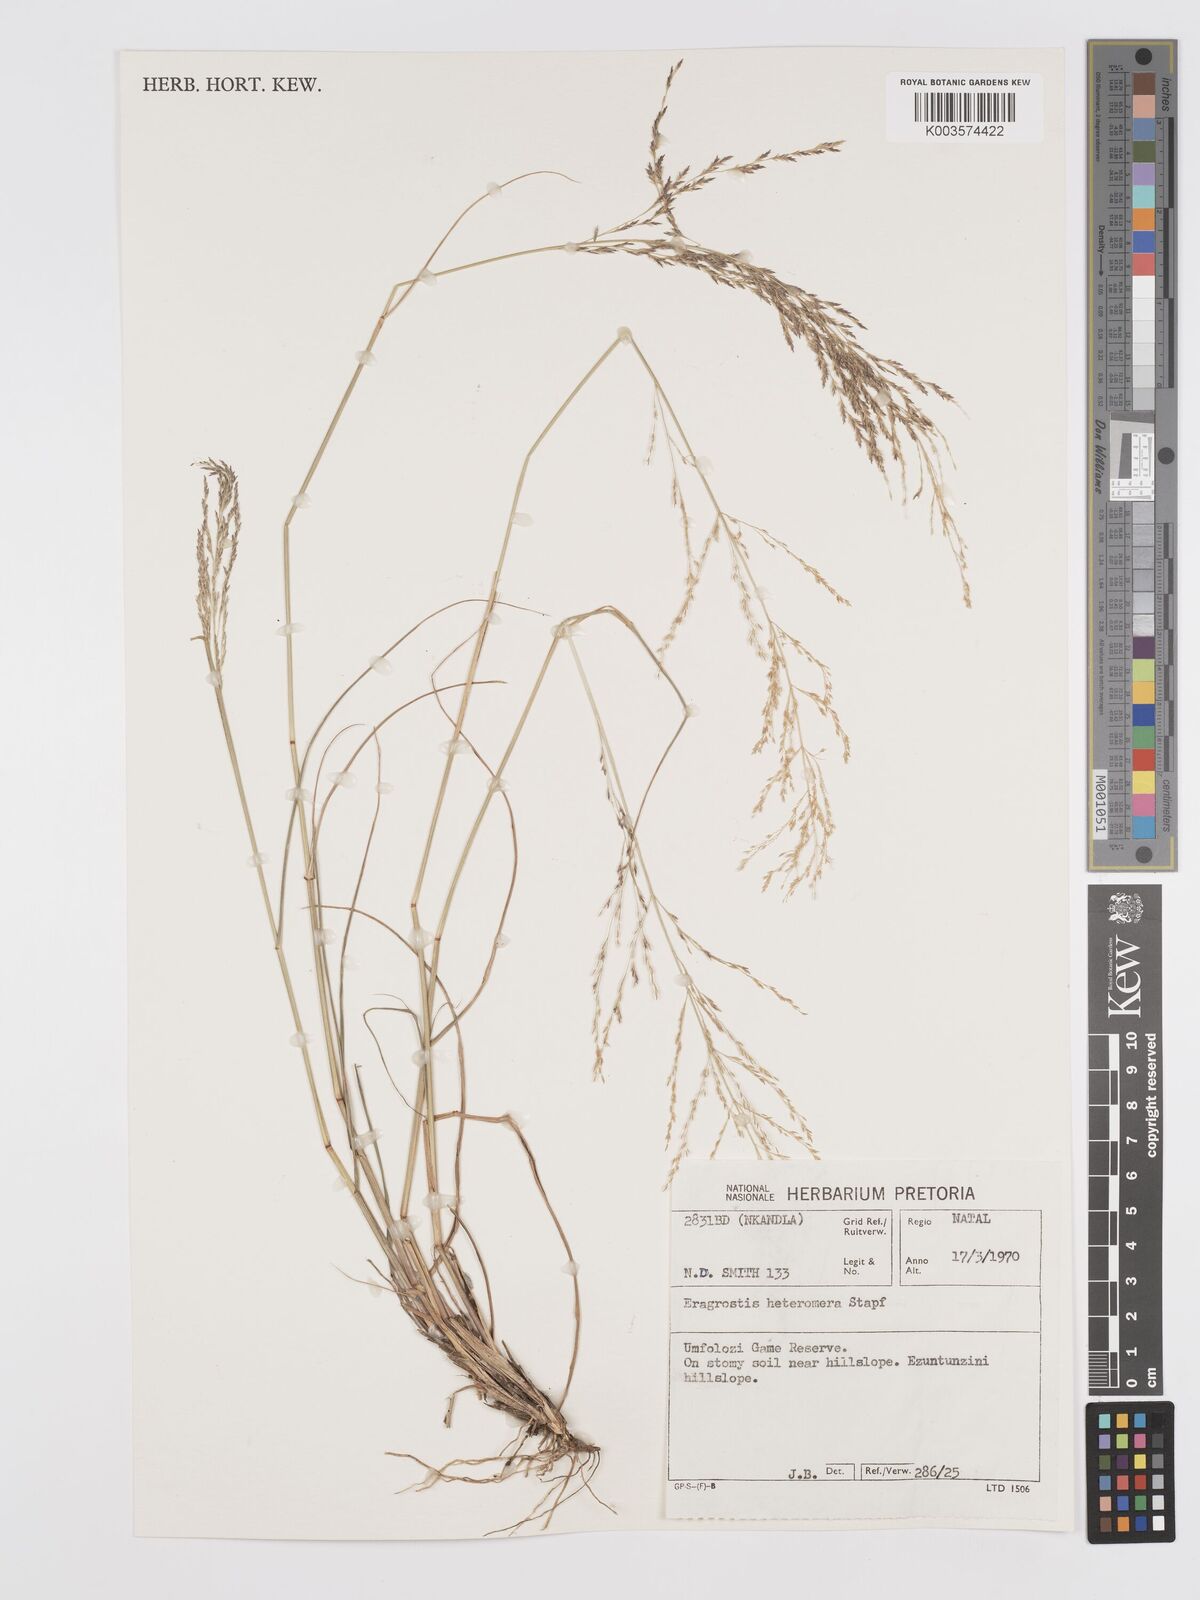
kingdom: Plantae
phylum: Tracheophyta
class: Liliopsida
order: Poales
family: Poaceae
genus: Eragrostis
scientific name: Eragrostis heteromera
